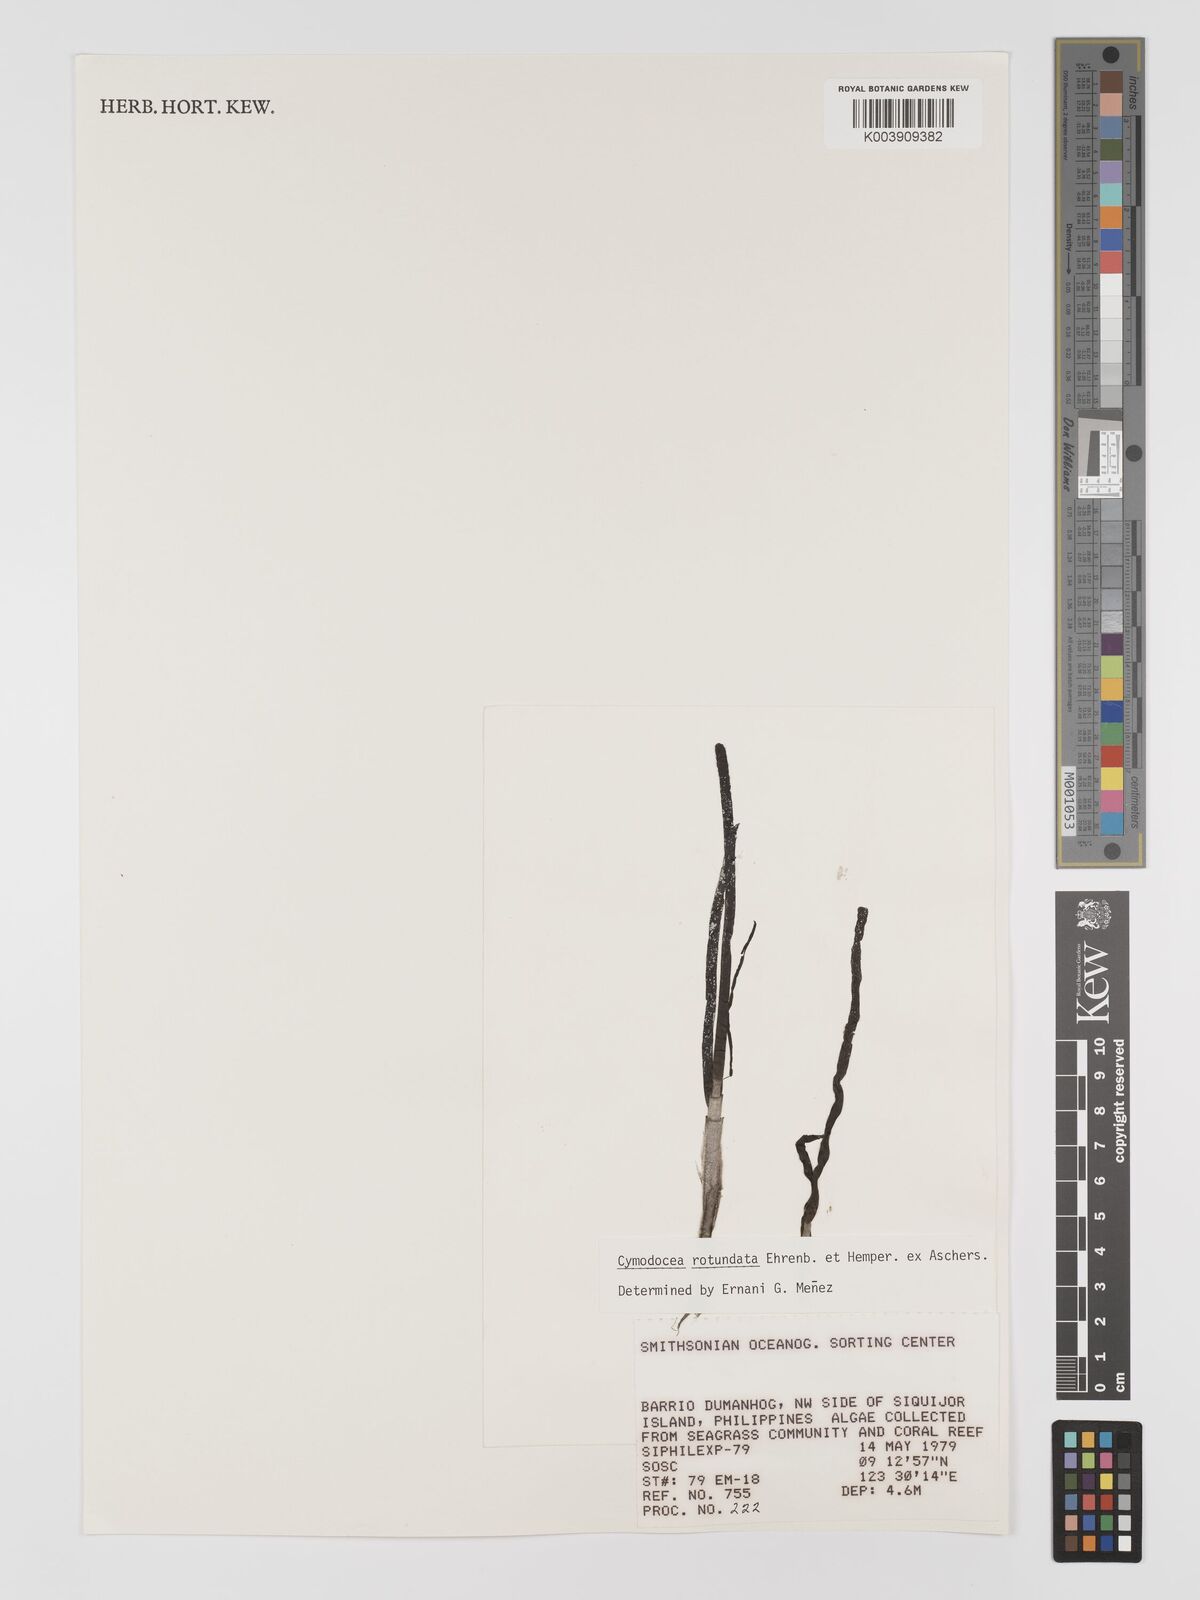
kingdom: Plantae
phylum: Tracheophyta
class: Liliopsida
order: Alismatales
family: Cymodoceaceae
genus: Cymodocea
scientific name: Cymodocea rotundata
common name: Species code: cr
